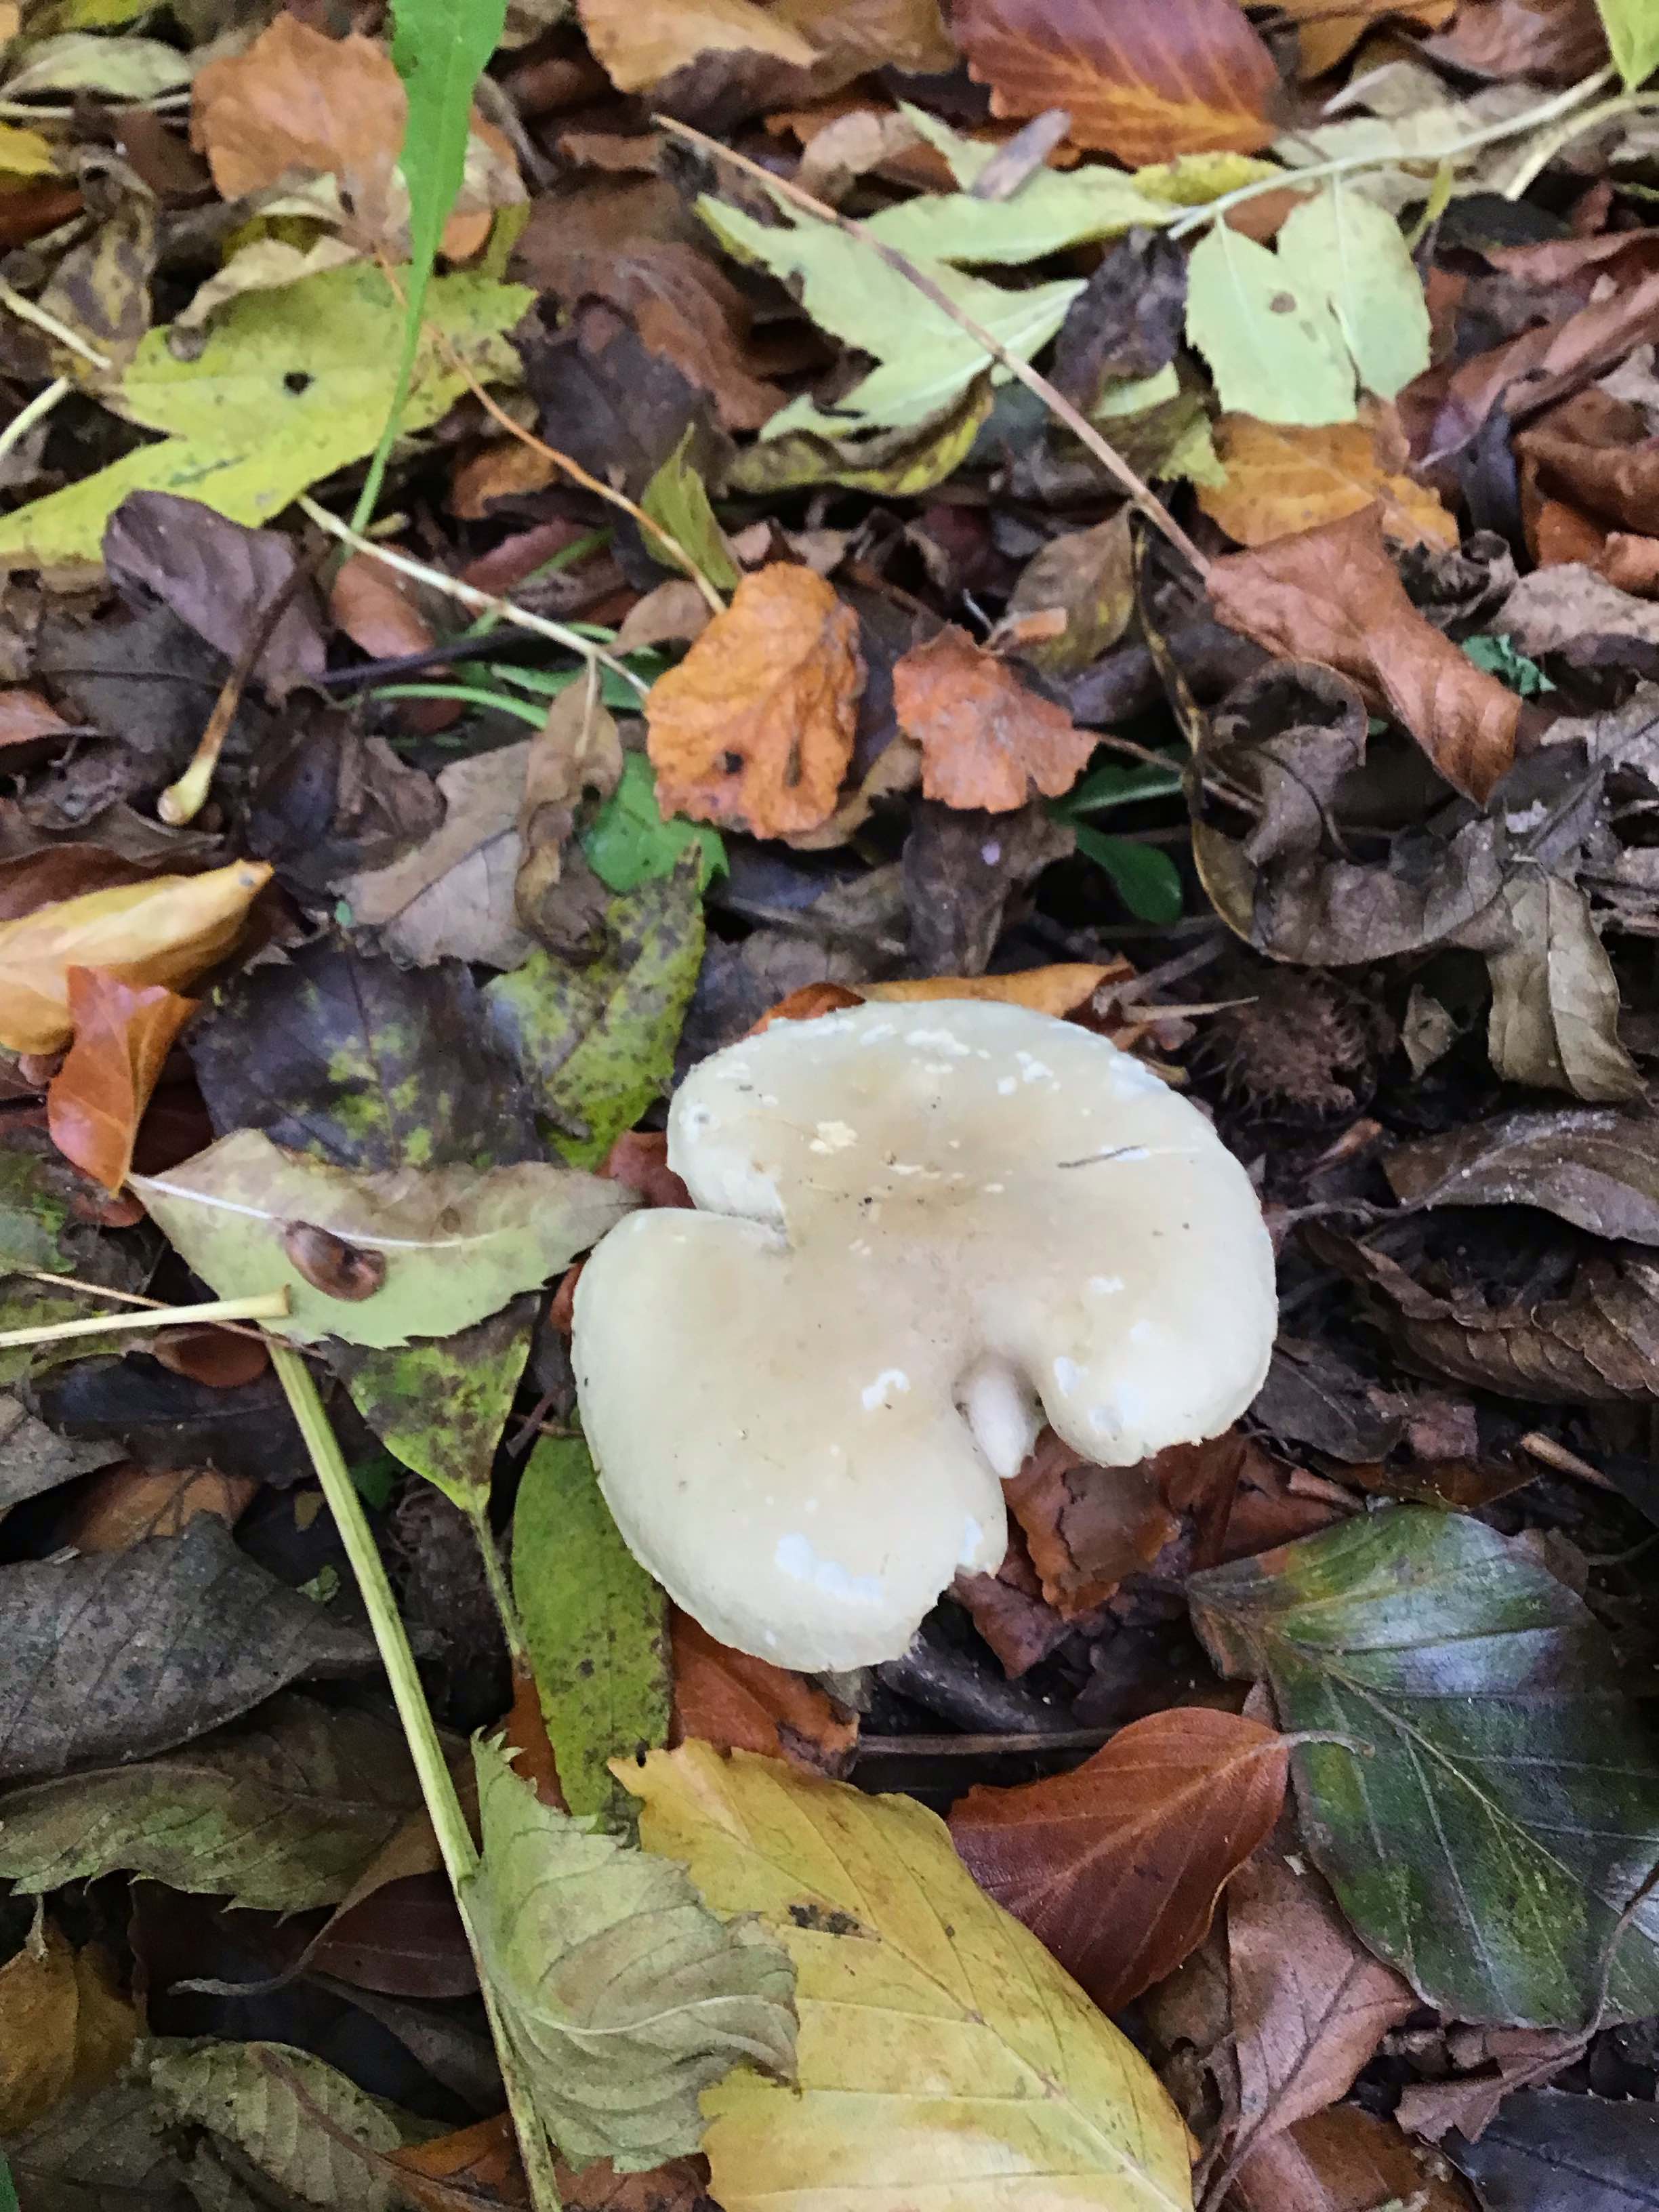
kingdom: Fungi
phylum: Basidiomycota
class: Agaricomycetes
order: Agaricales
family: Tricholomataceae
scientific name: Tricholomataceae
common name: ridderhatfamilien
